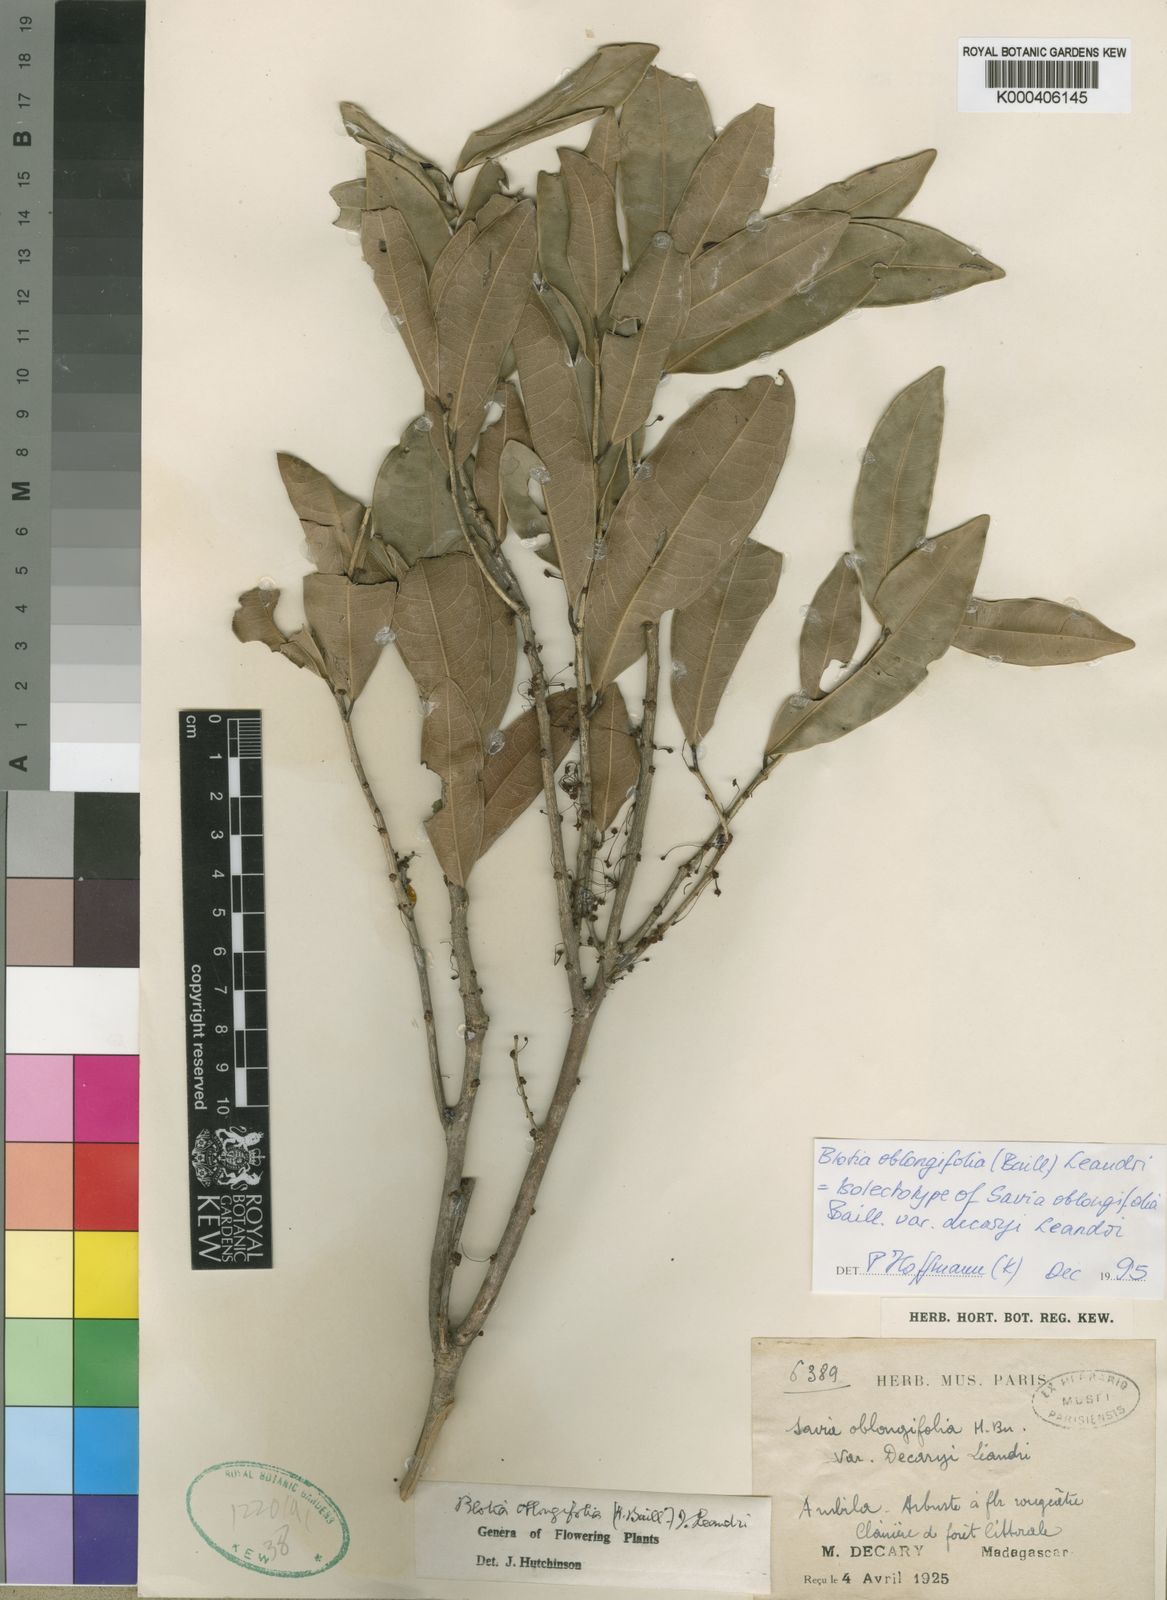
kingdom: Plantae
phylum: Tracheophyta
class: Magnoliopsida
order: Malpighiales
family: Phyllanthaceae
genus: Wielandia
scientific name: Wielandia oblongifolia
